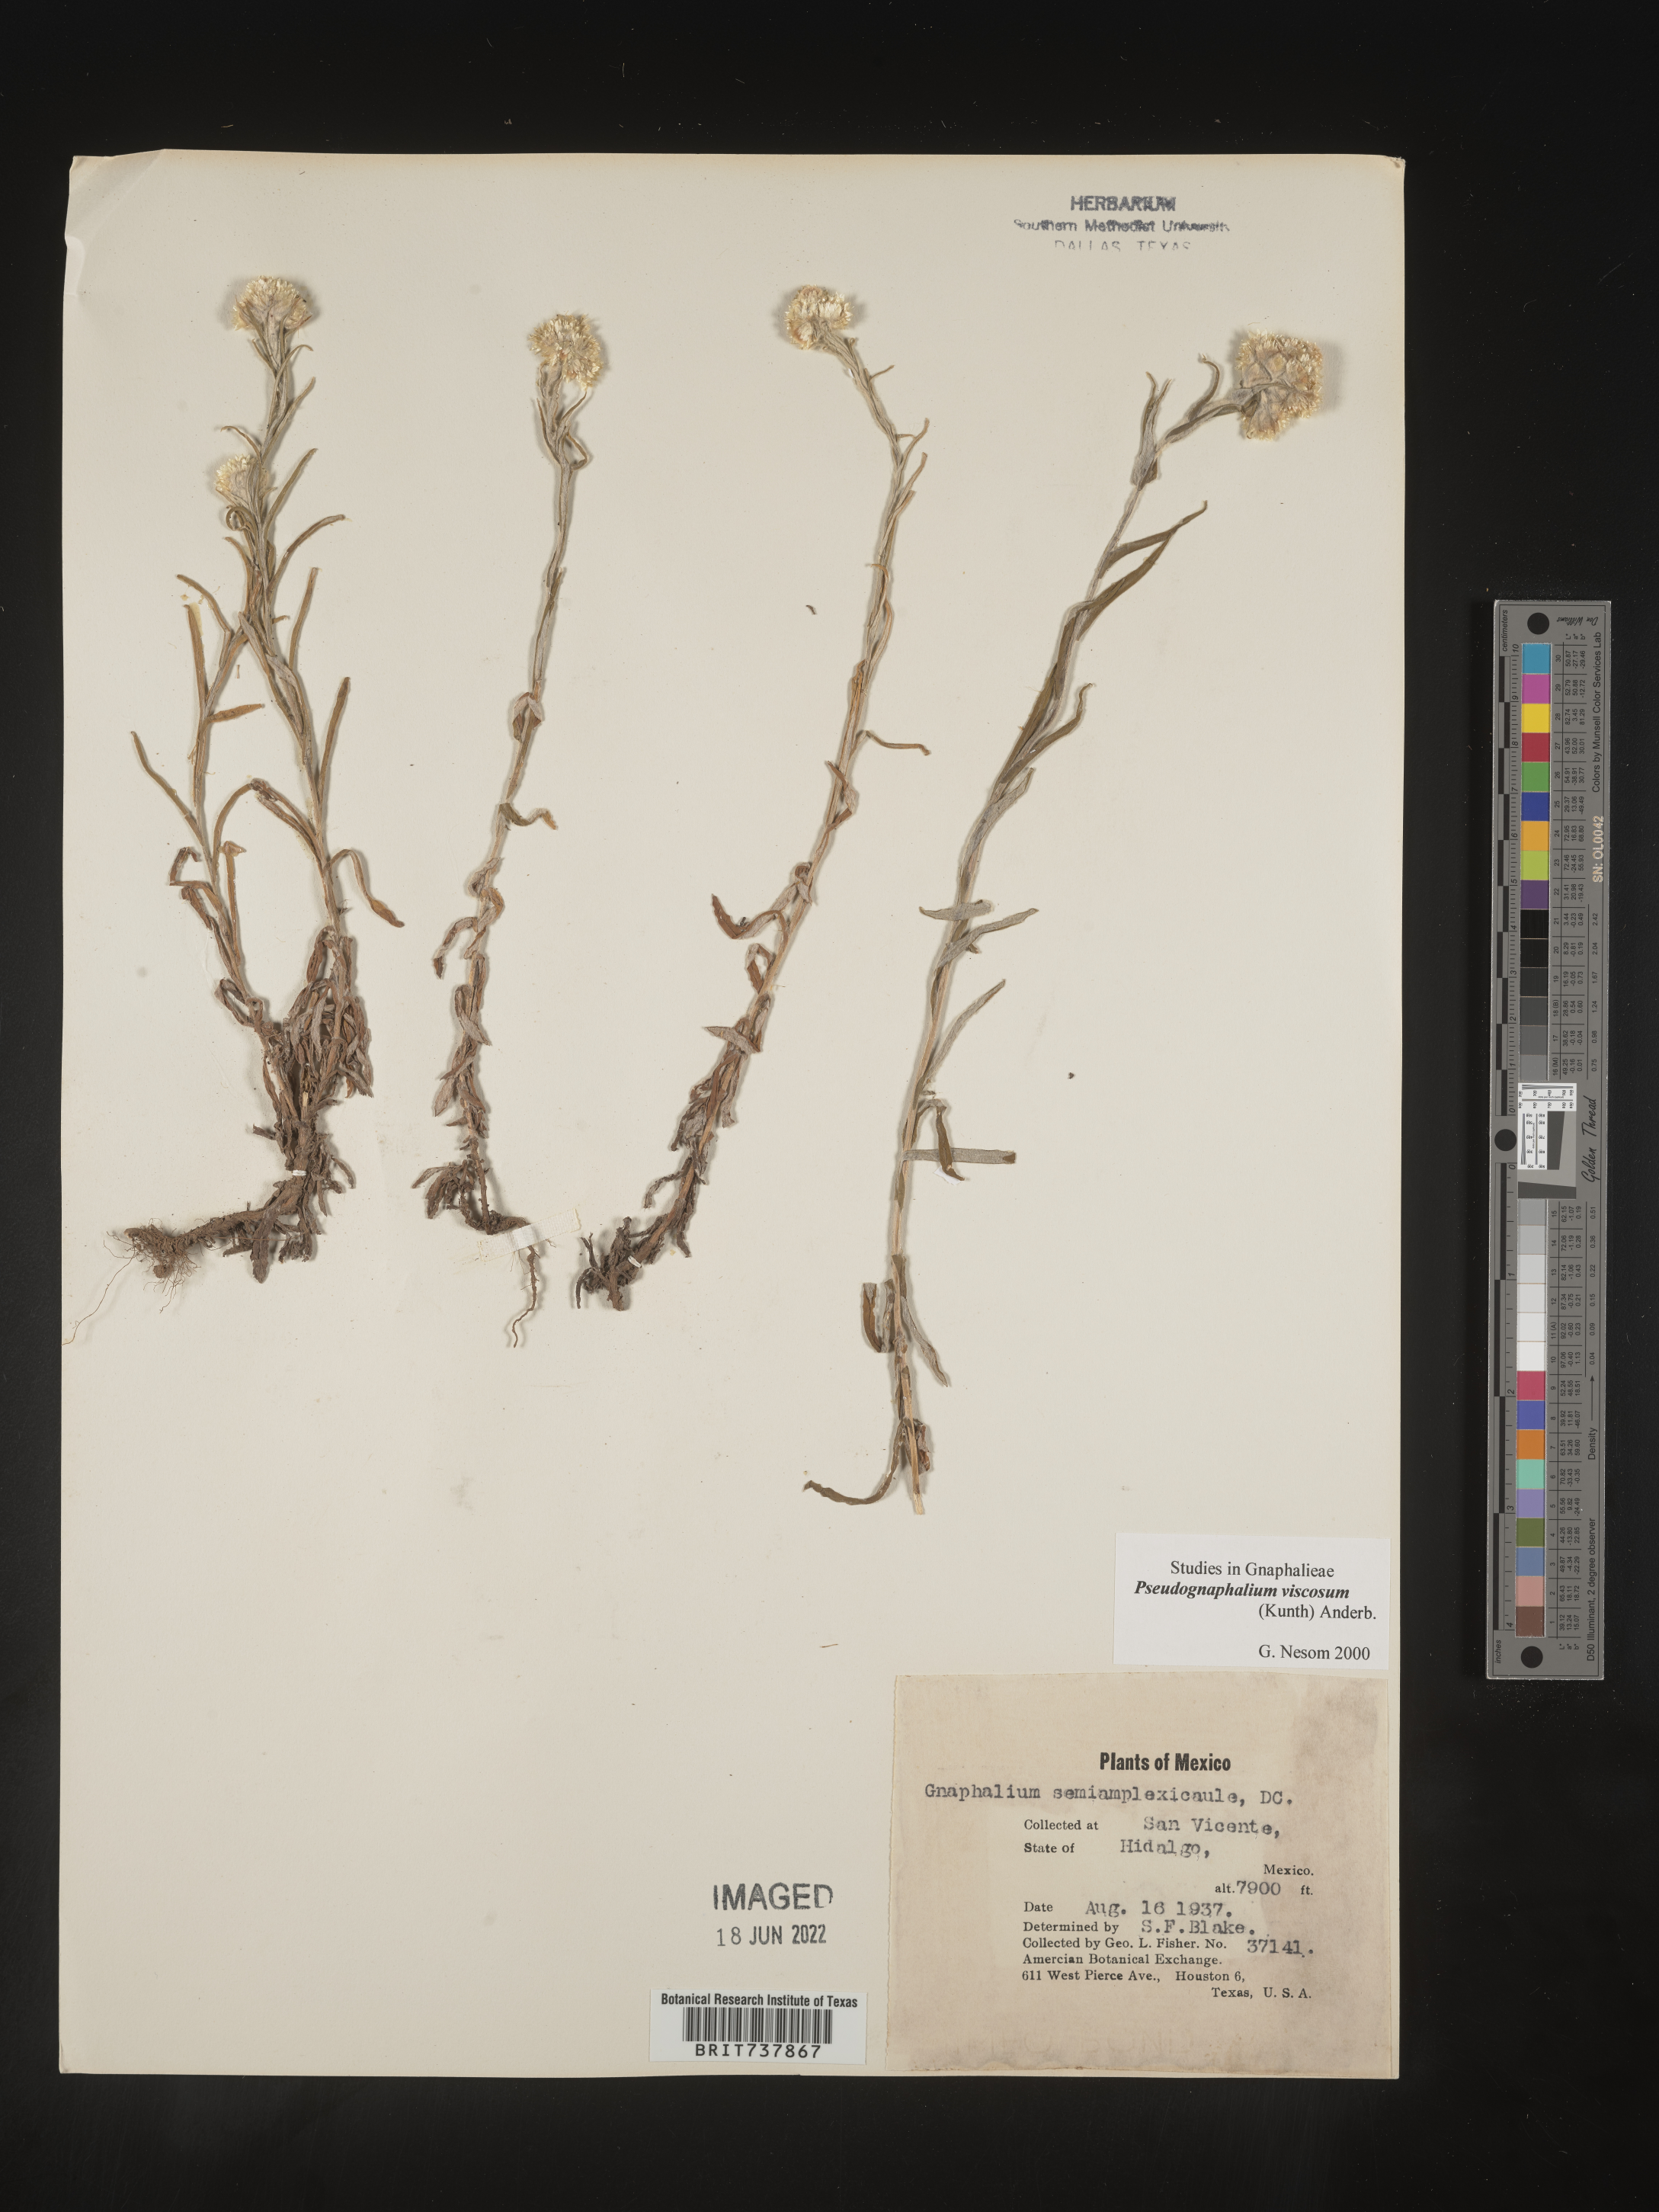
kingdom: Plantae
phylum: Tracheophyta
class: Magnoliopsida
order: Asterales
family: Asteraceae
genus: Pseudognaphalium
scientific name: Pseudognaphalium viscosum
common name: Sticky rabbit-tobacco
